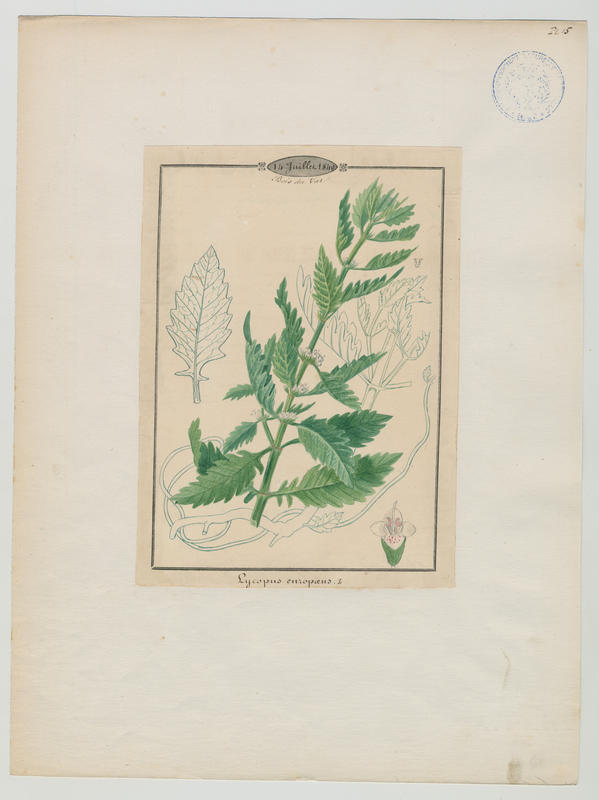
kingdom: Plantae
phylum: Tracheophyta
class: Magnoliopsida
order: Lamiales
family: Lamiaceae
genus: Lycopus
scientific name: Lycopus europaeus
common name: European bugleweed
